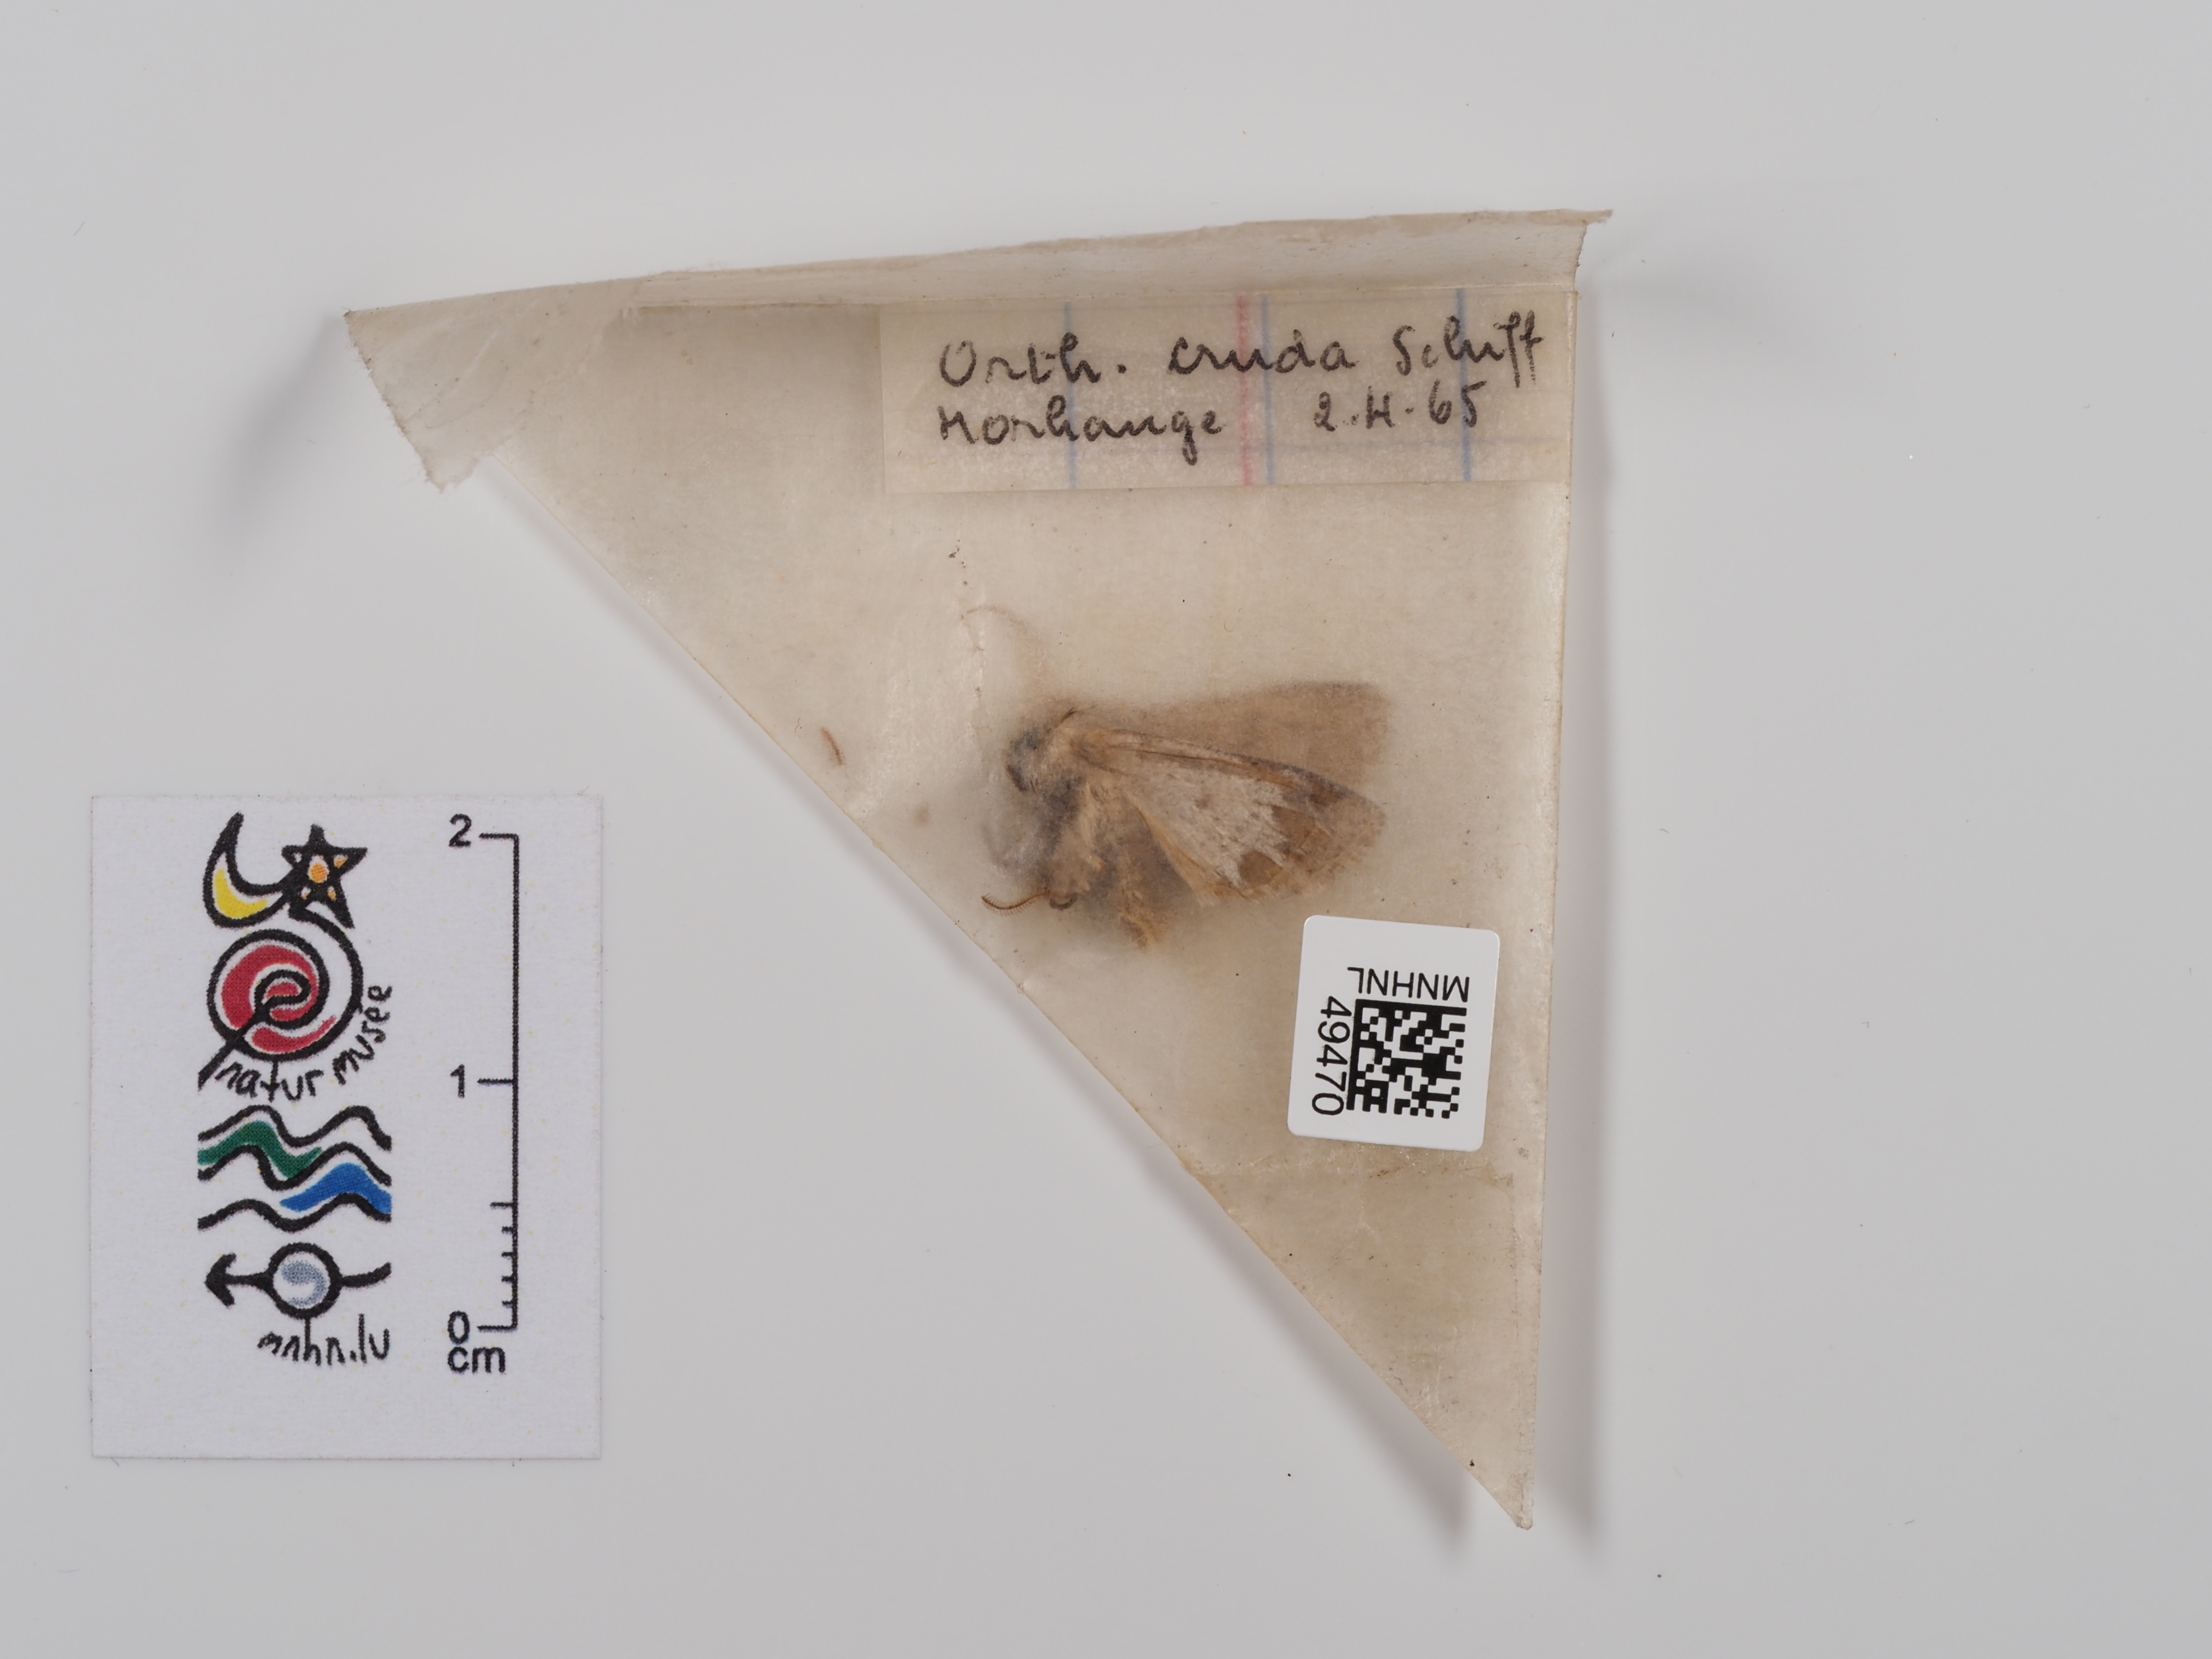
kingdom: Animalia
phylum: Arthropoda
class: Insecta
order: Lepidoptera
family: Noctuidae
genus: Orthosia
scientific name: Orthosia cruda
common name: Small quaker
